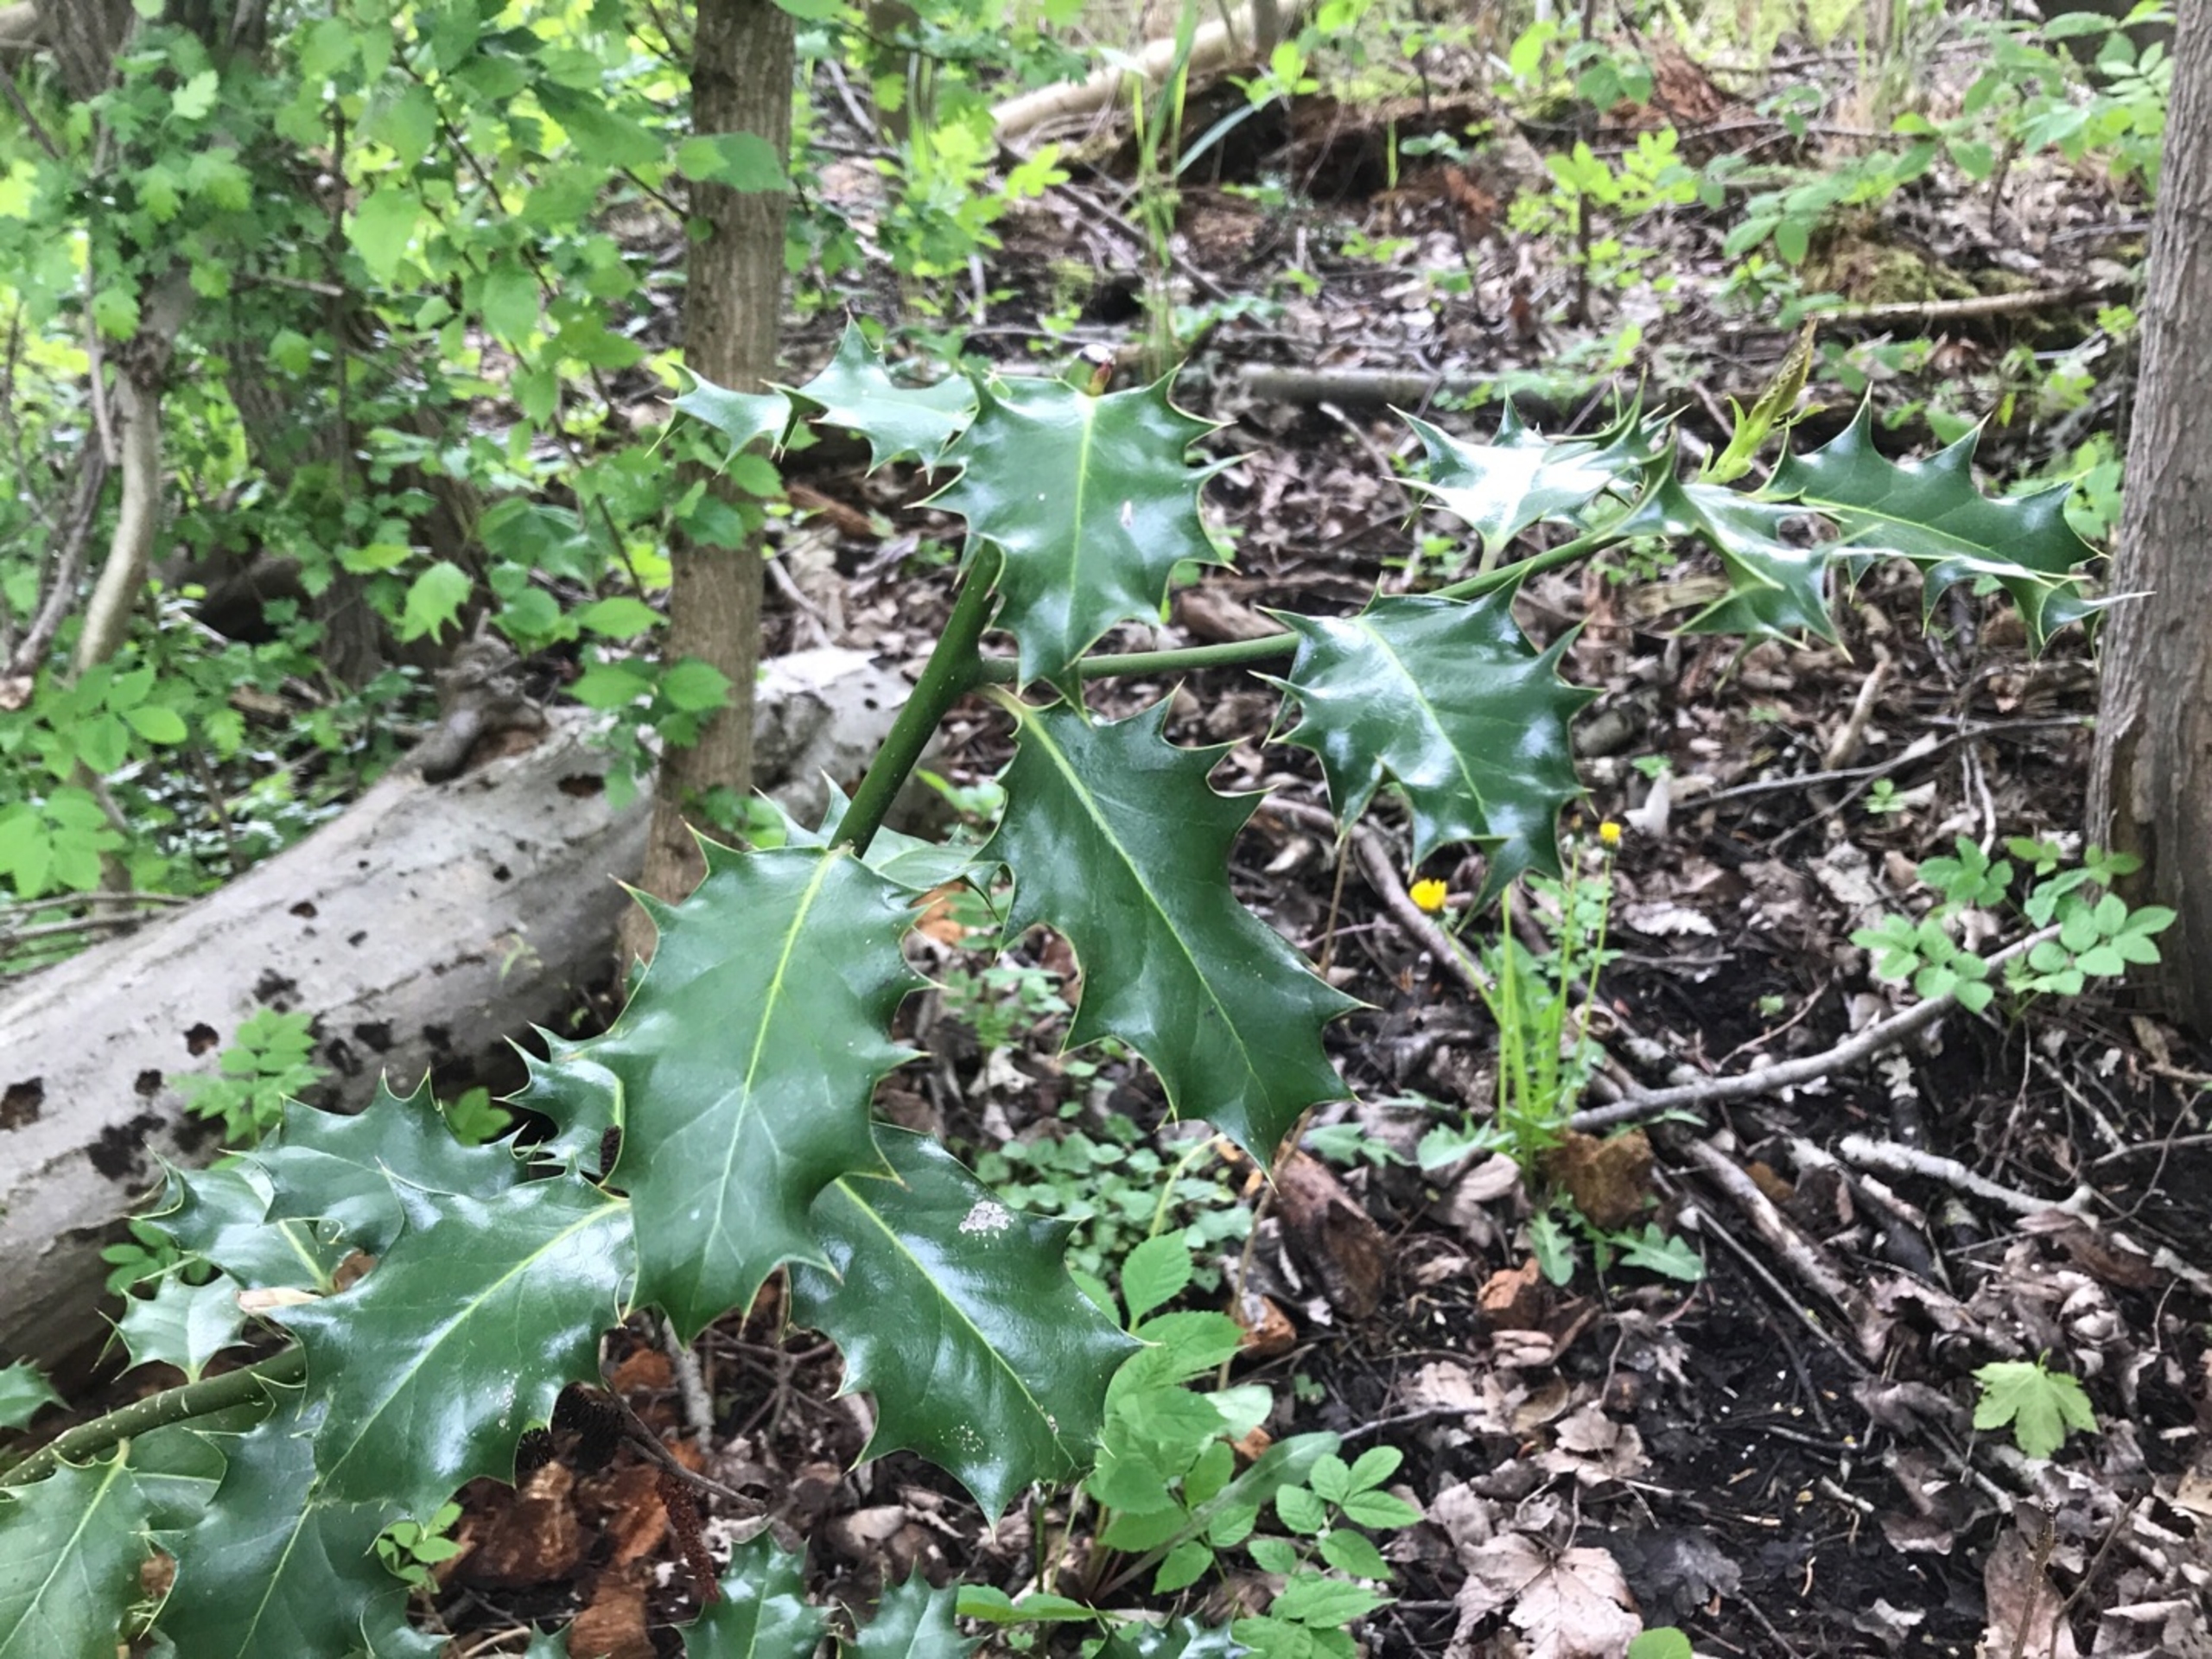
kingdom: Plantae
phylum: Tracheophyta
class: Magnoliopsida
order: Aquifoliales
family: Aquifoliaceae
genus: Ilex
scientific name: Ilex aquifolium
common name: Kristtorn
